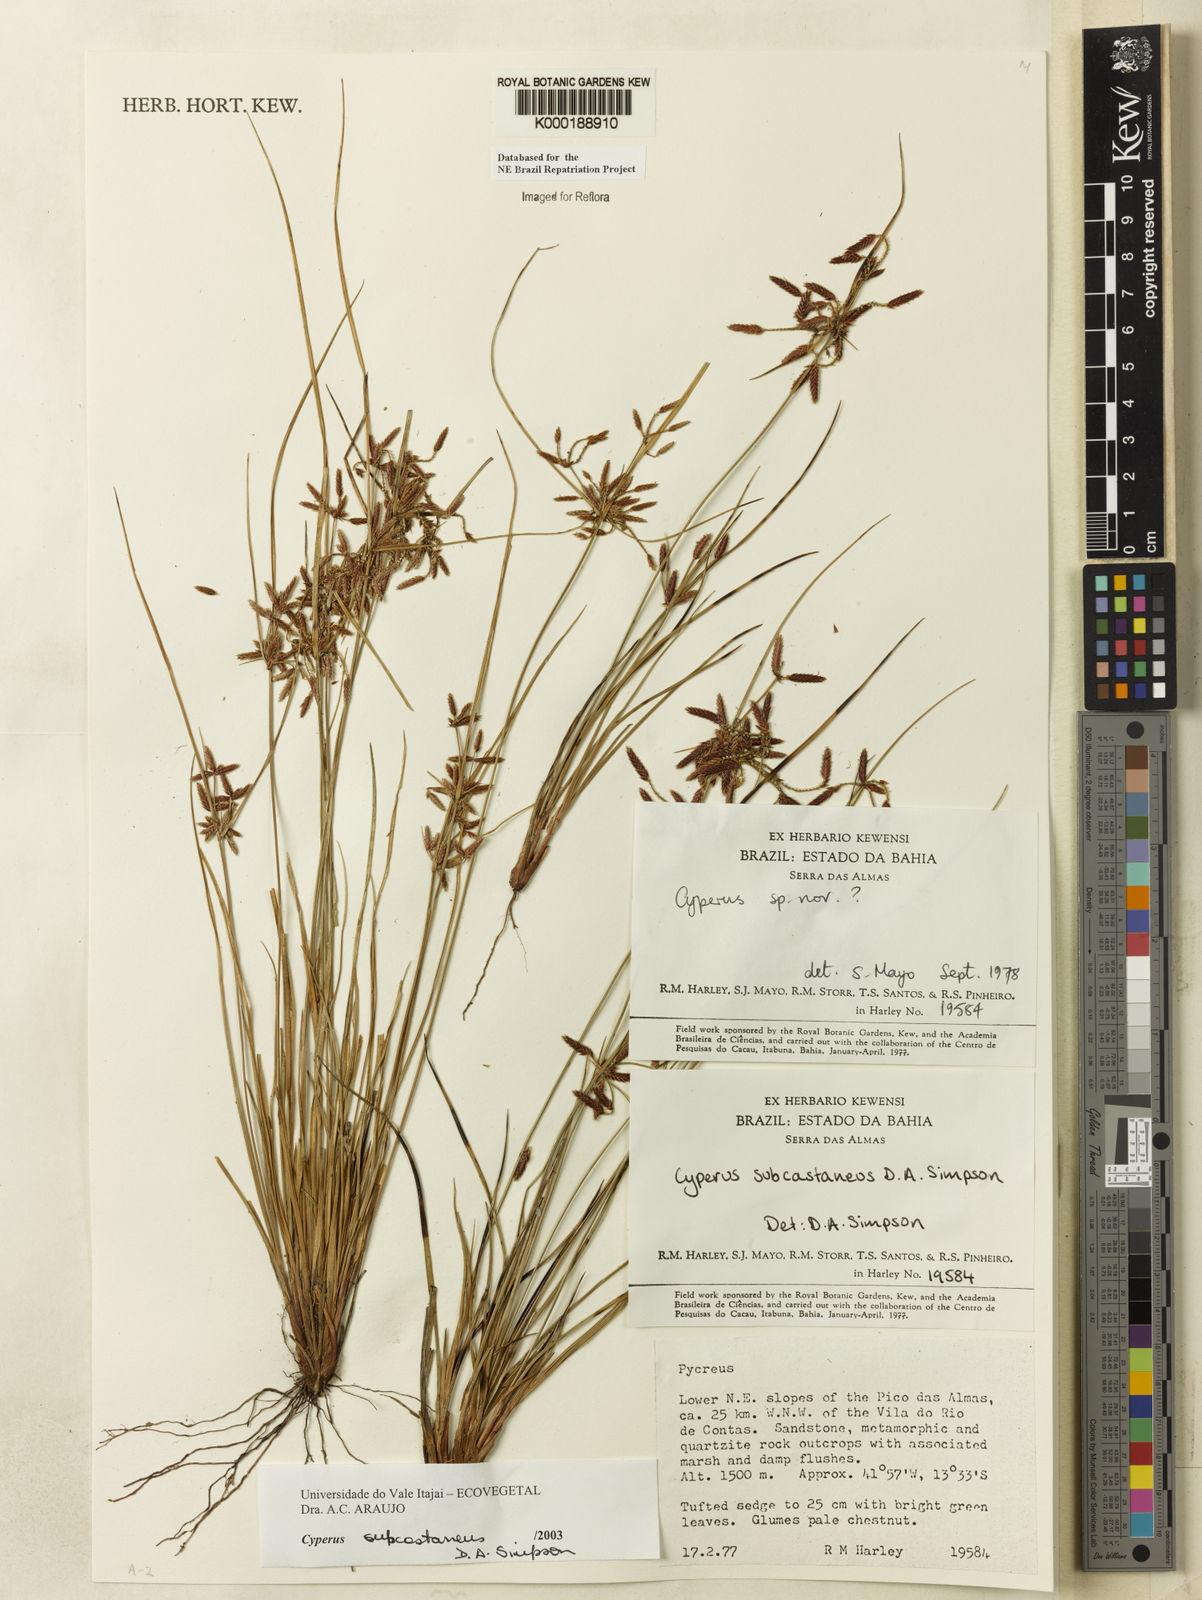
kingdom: Plantae
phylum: Tracheophyta
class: Liliopsida
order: Poales
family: Cyperaceae
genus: Cyperus
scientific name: Cyperus subcastaneus
